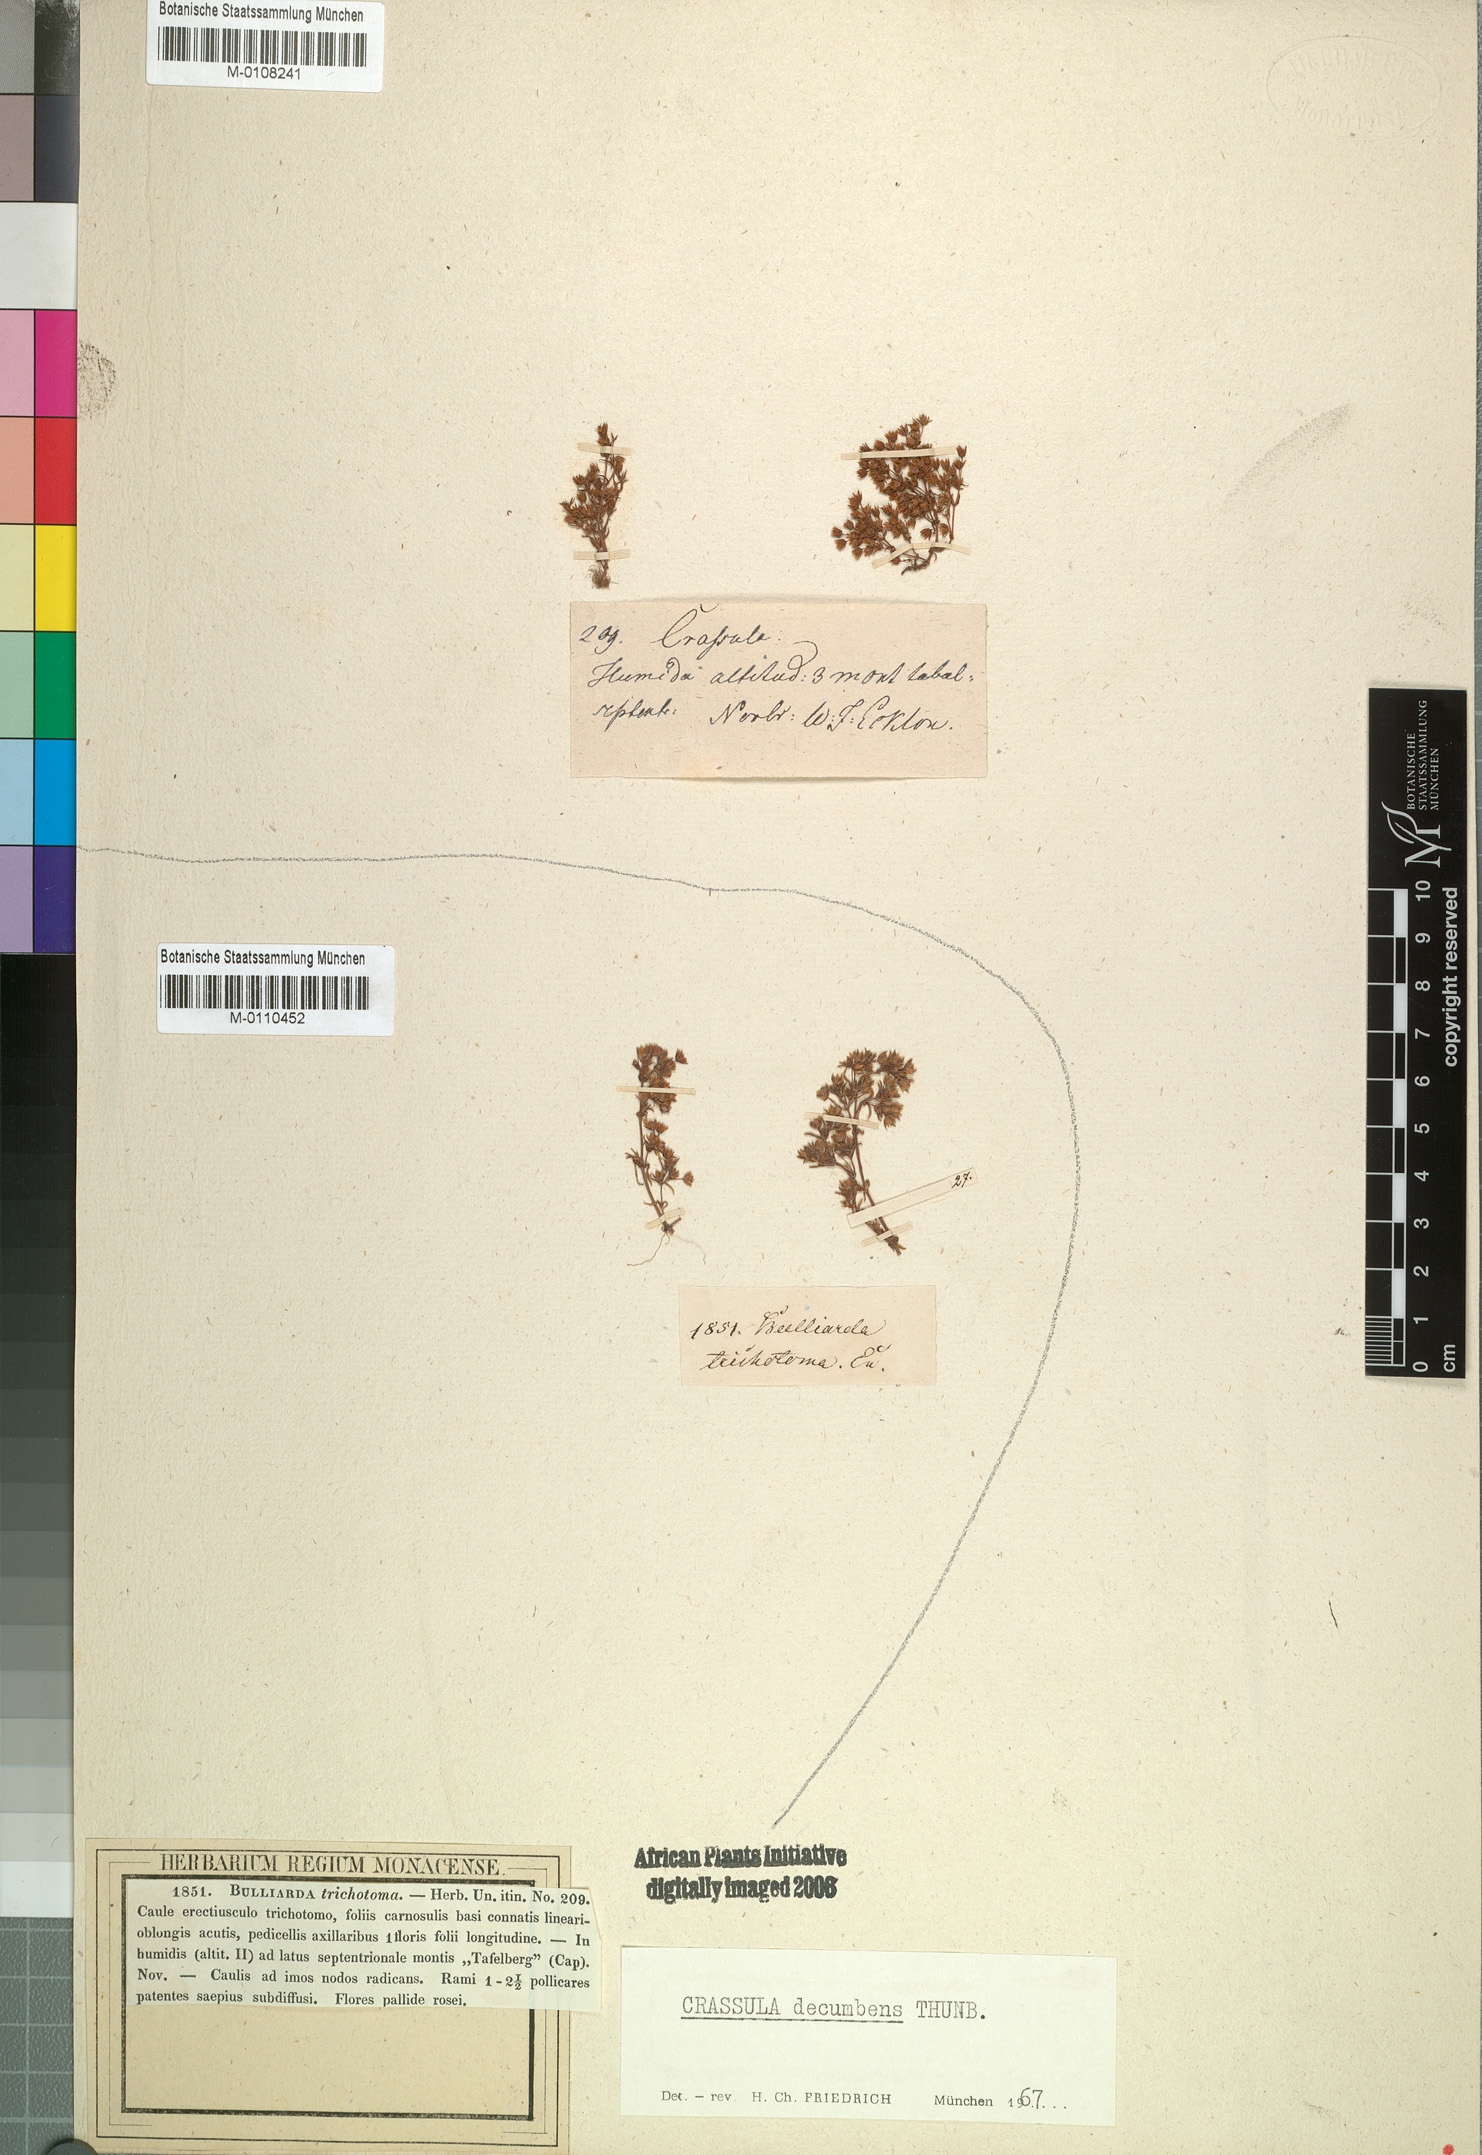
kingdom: Plantae
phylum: Tracheophyta
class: Magnoliopsida
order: Saxifragales
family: Crassulaceae
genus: Crassula
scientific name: Crassula decumbens
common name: Scilly pigmyweed
